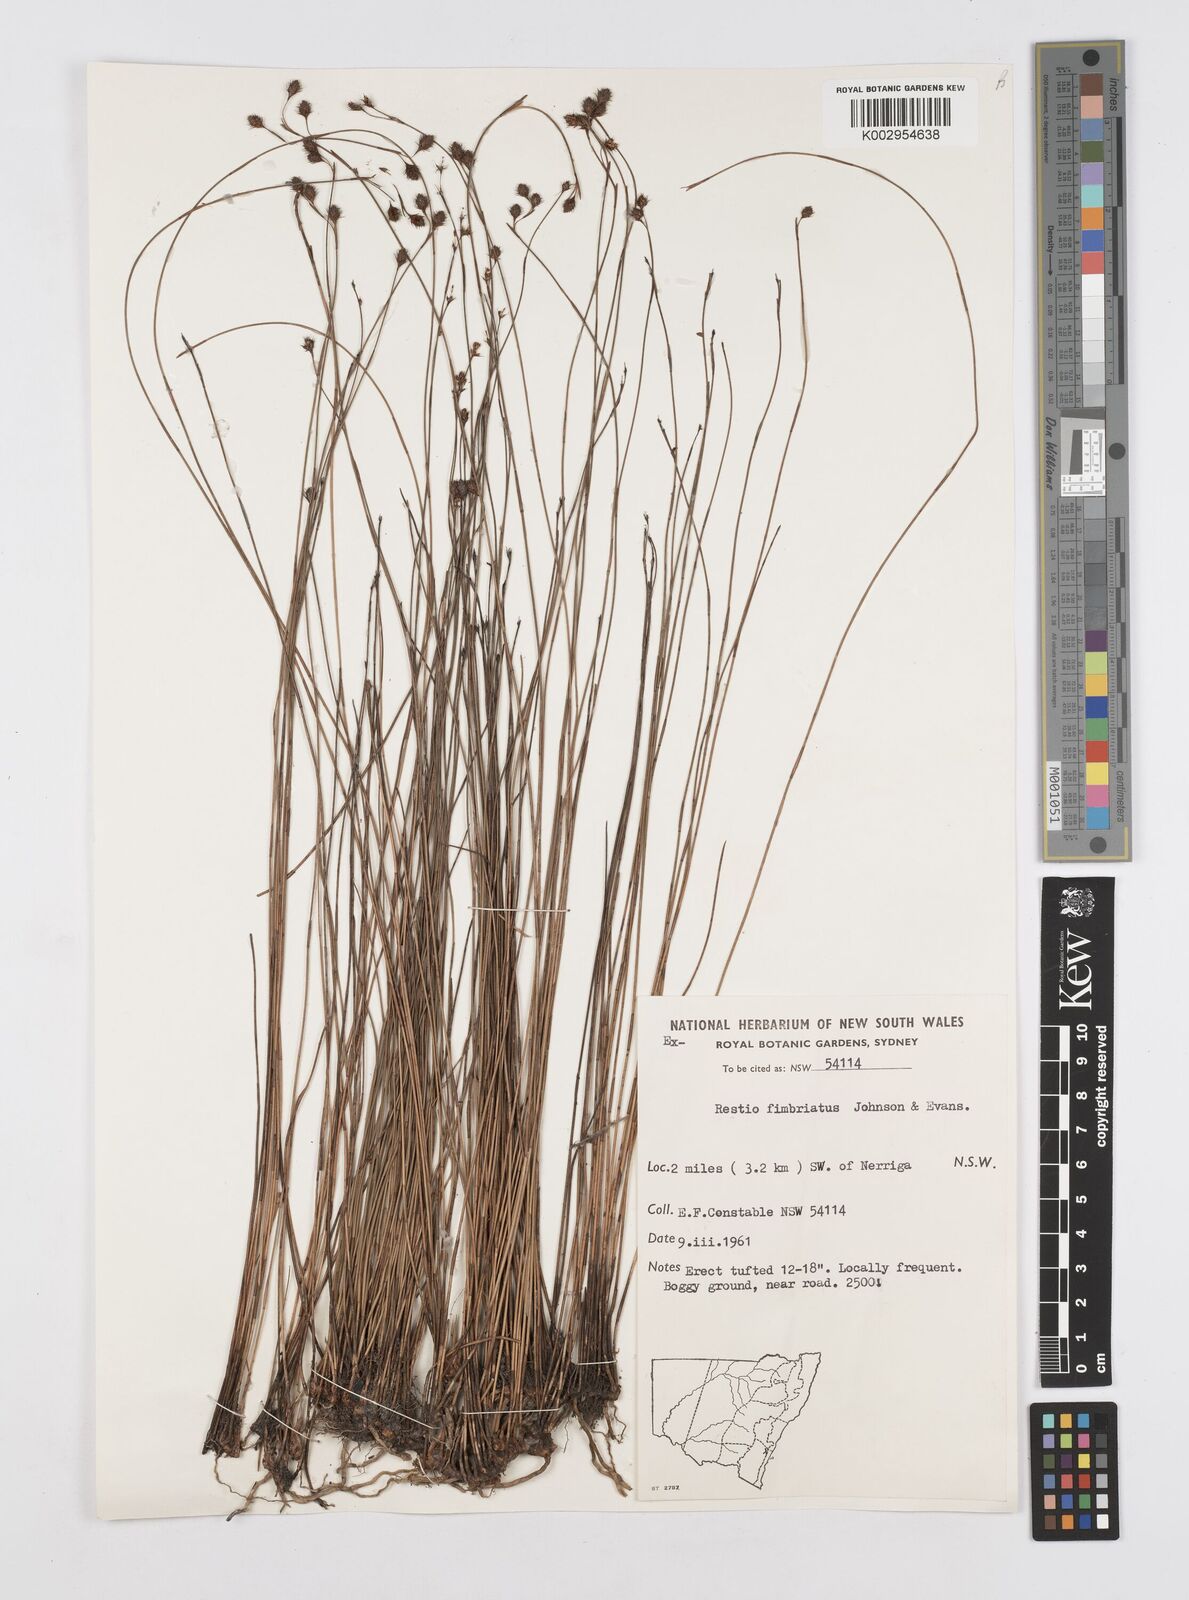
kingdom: Plantae
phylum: Tracheophyta
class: Liliopsida
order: Poales
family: Restionaceae
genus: Baloskion
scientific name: Baloskion fimbriatum
